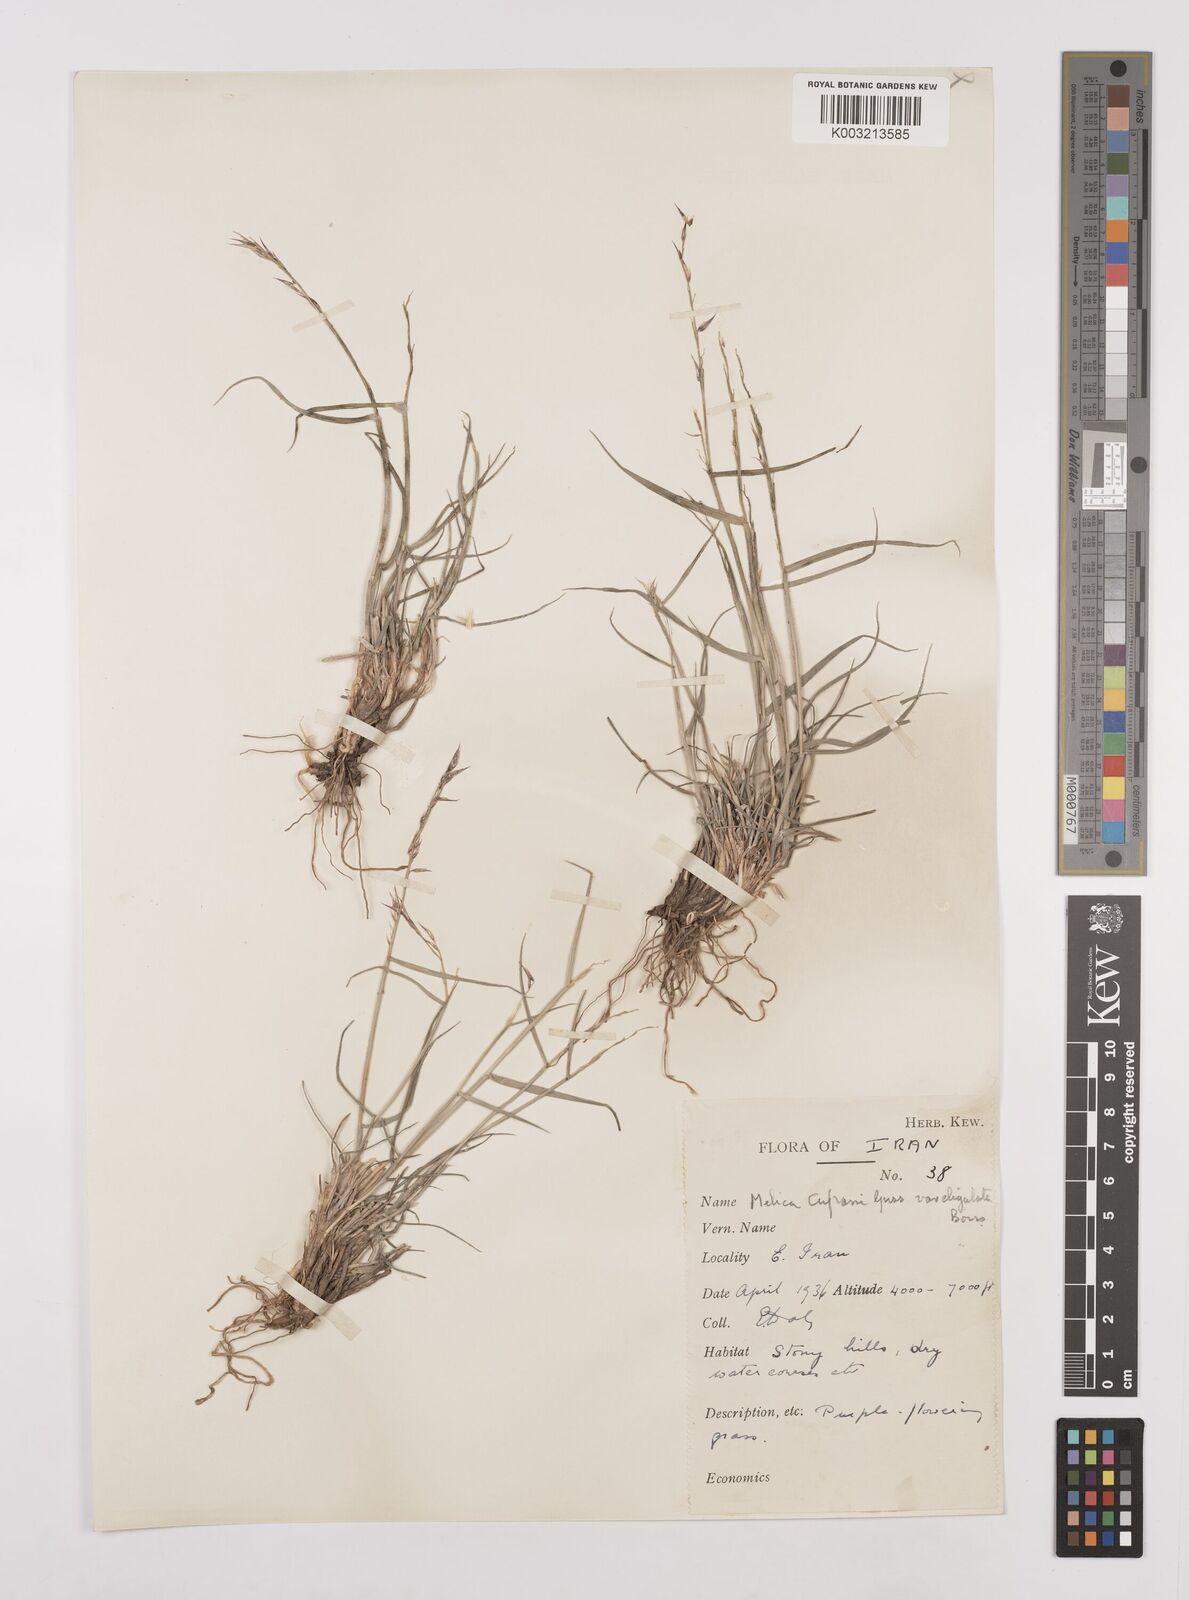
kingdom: Plantae
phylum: Tracheophyta
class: Liliopsida
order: Poales
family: Poaceae
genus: Melica
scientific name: Melica eligulata
